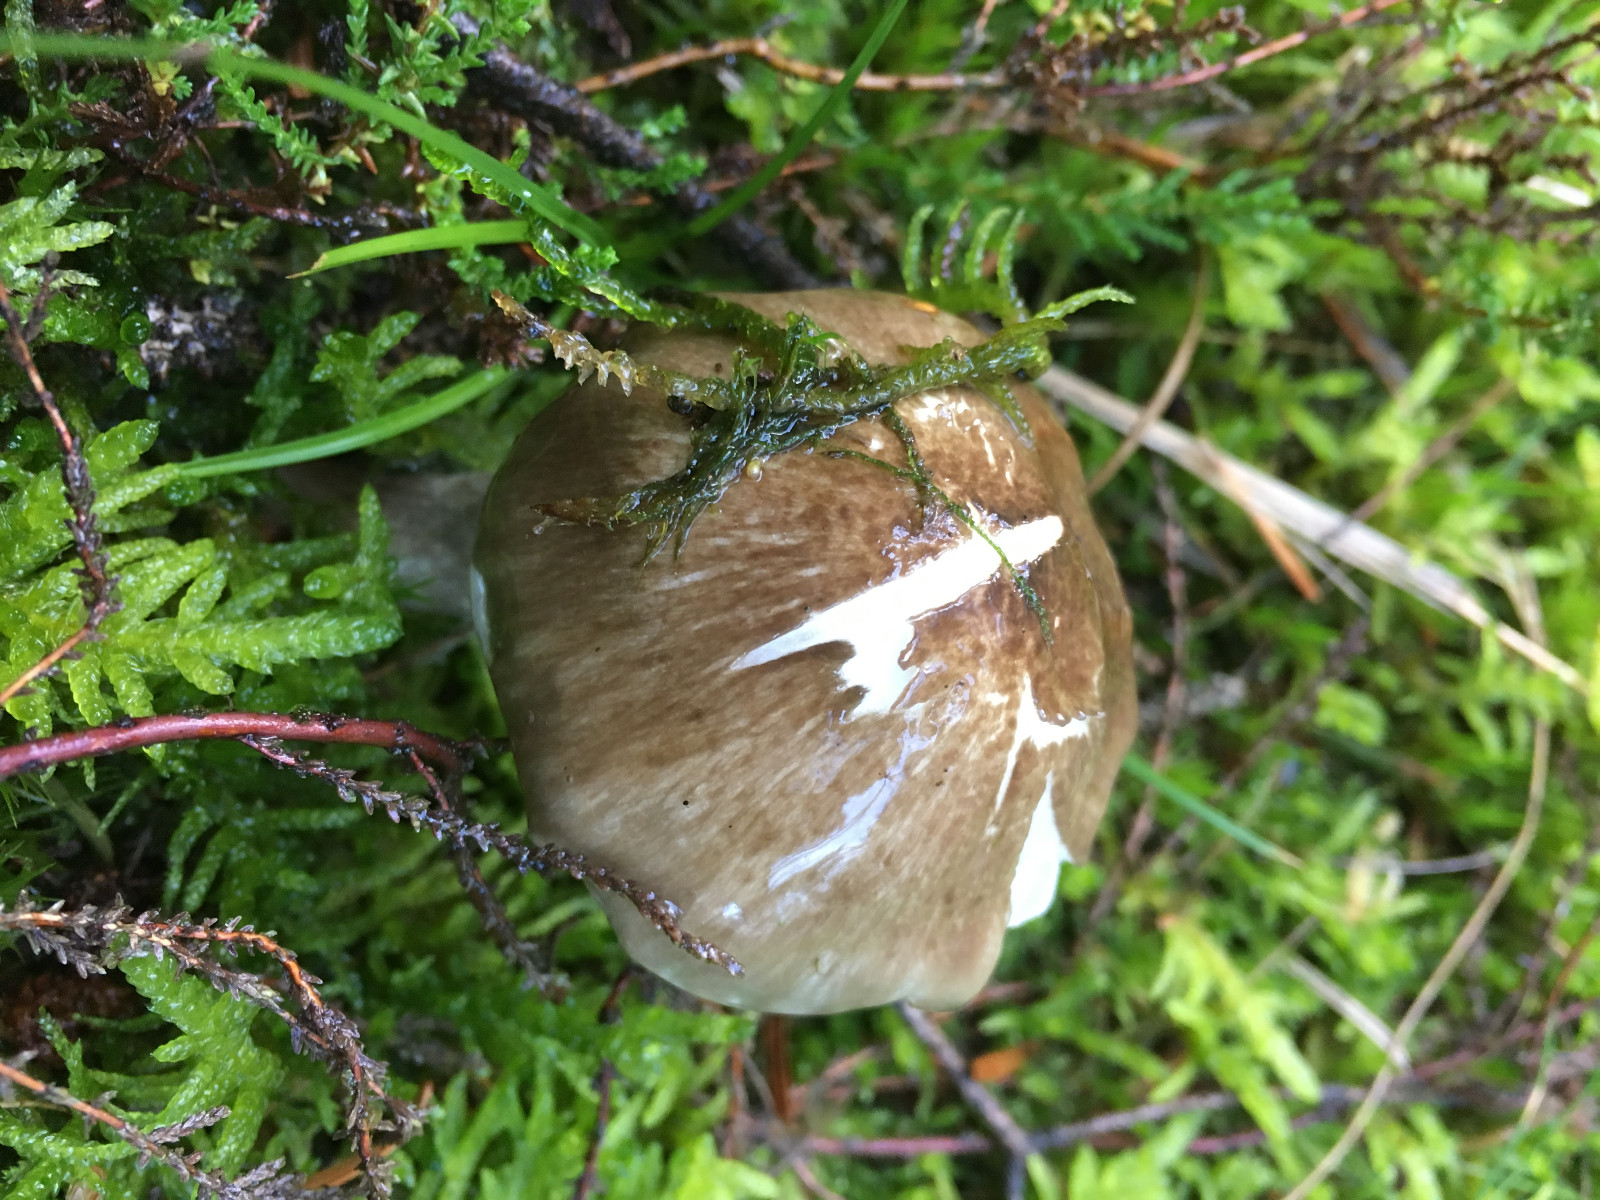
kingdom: Fungi
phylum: Basidiomycota
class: Agaricomycetes
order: Agaricales
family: Hygrophoraceae
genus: Hygrophorus
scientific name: Hygrophorus olivaceoalbus
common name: hvidbrun sneglehat
